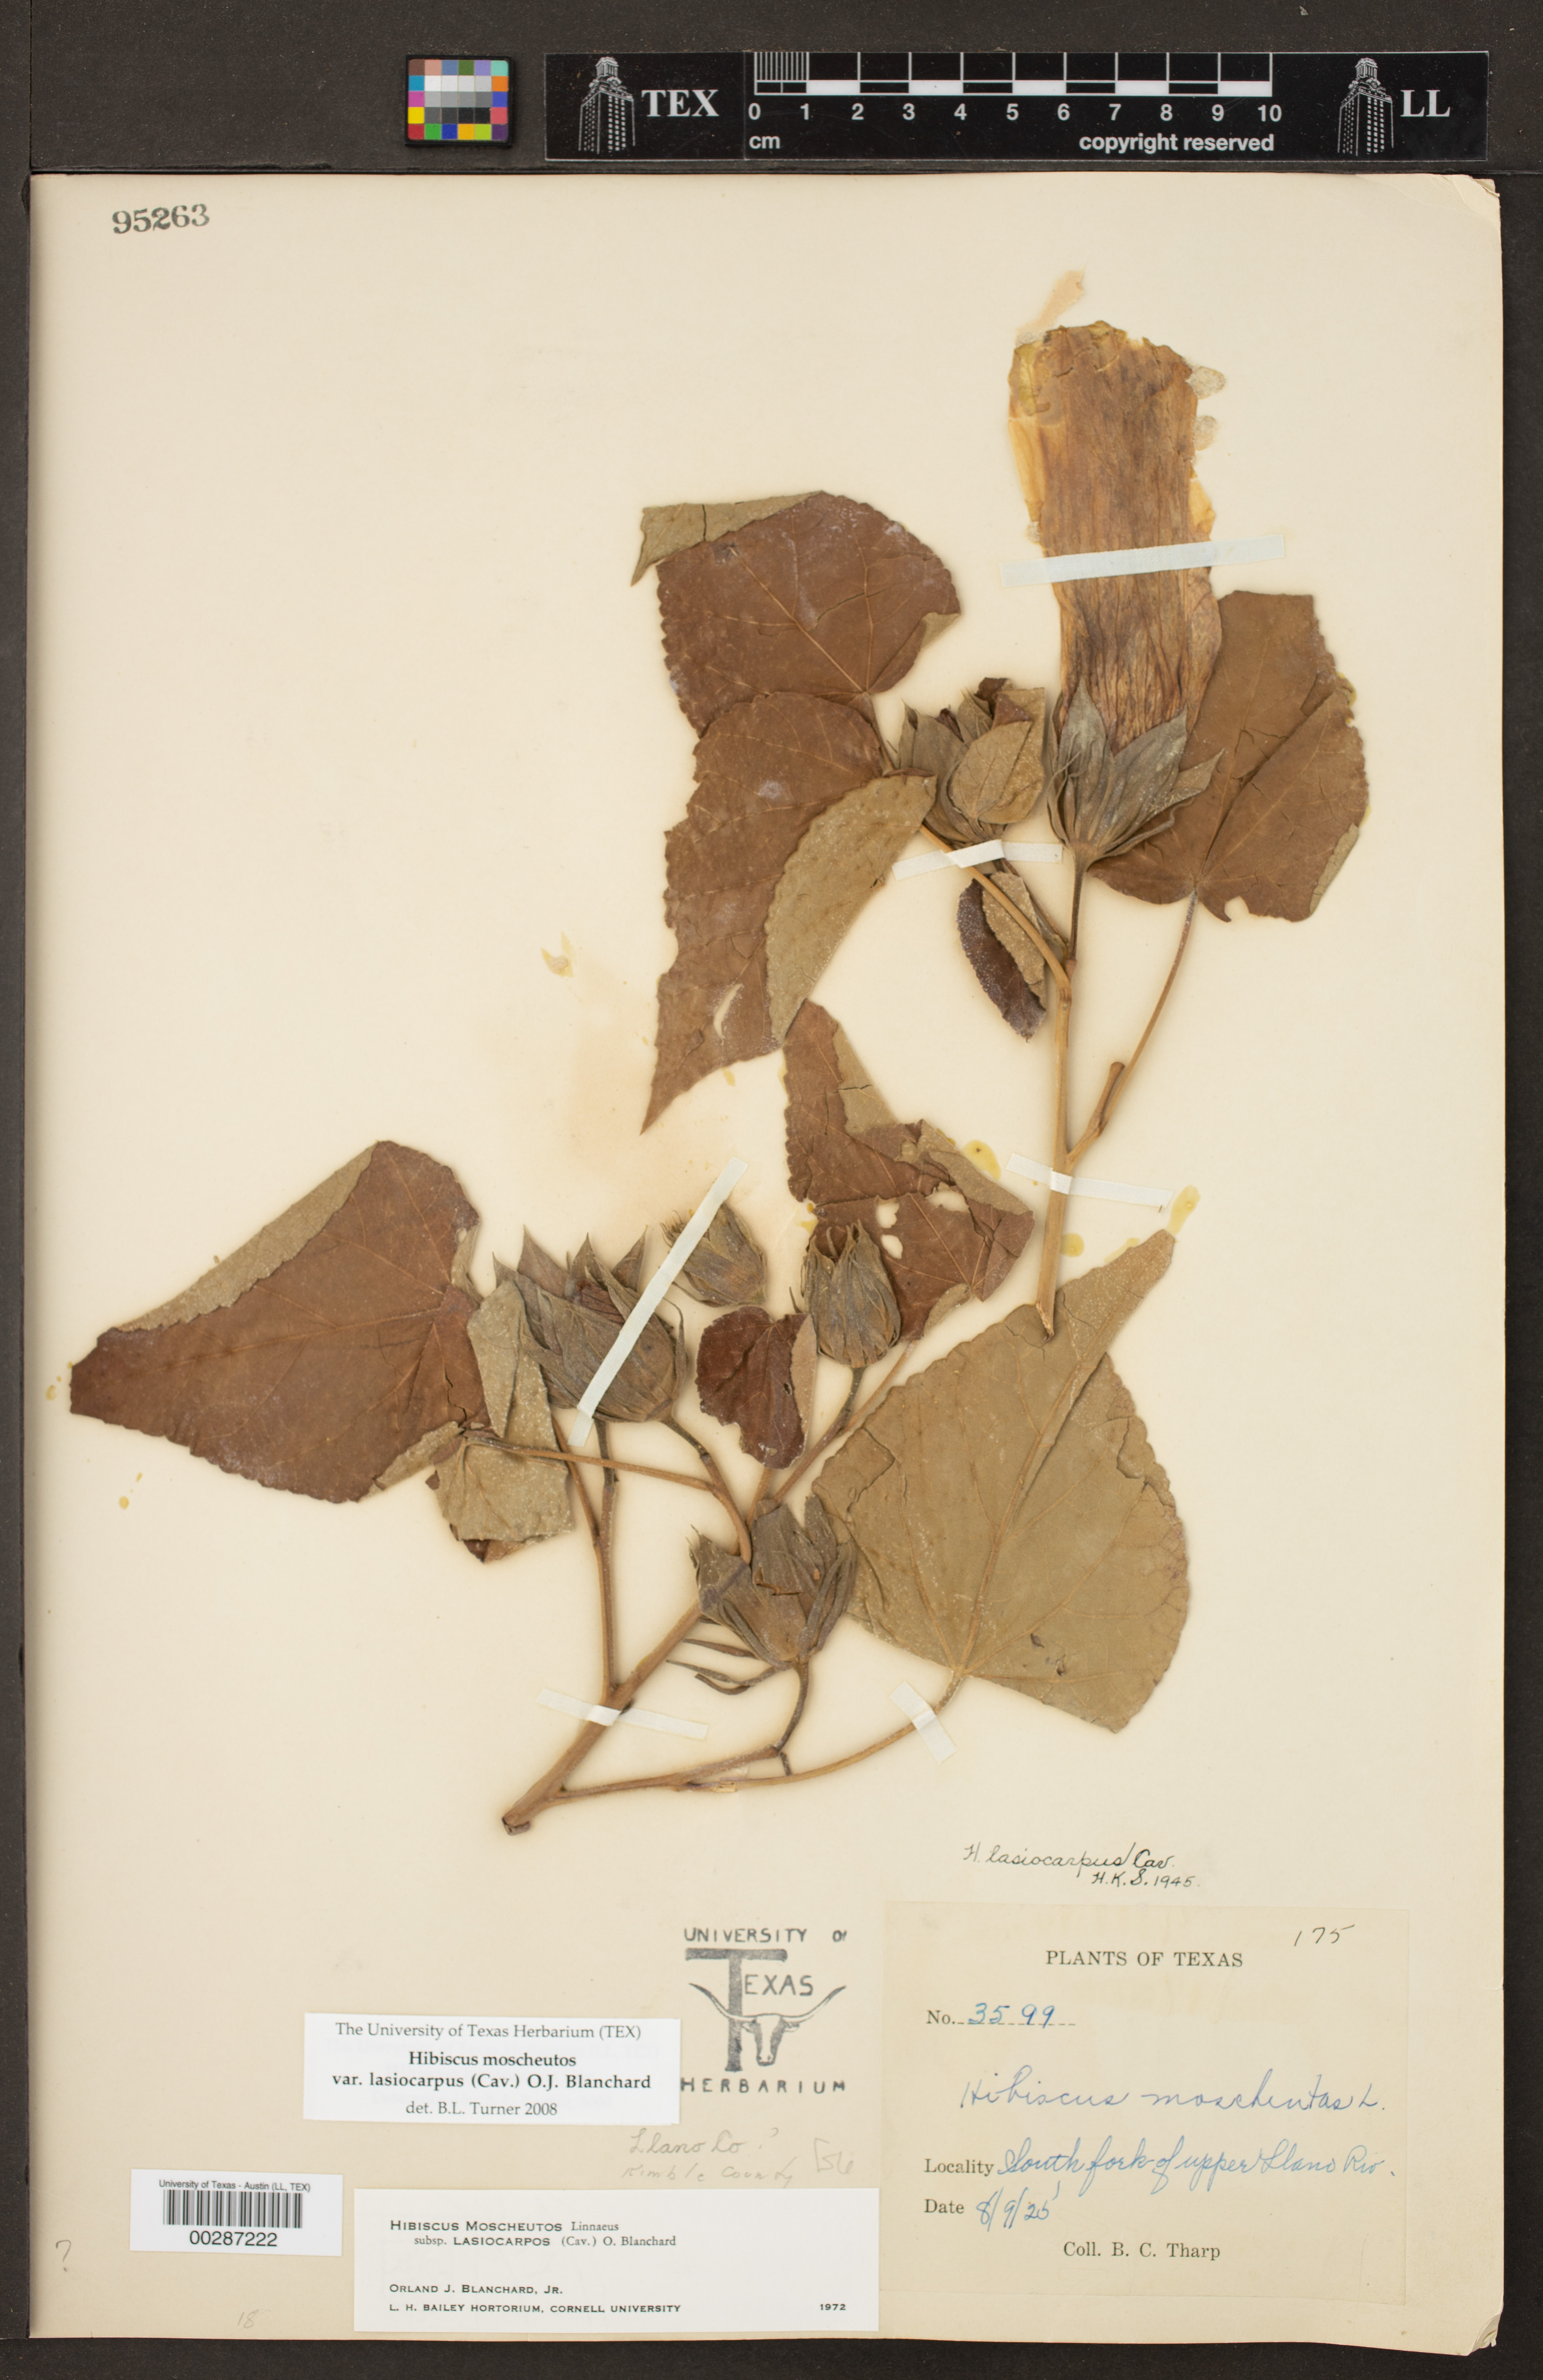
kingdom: Plantae
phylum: Tracheophyta
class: Magnoliopsida
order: Malvales
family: Malvaceae
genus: Hibiscus
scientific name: Hibiscus moscheutos
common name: Common rose-mallow
